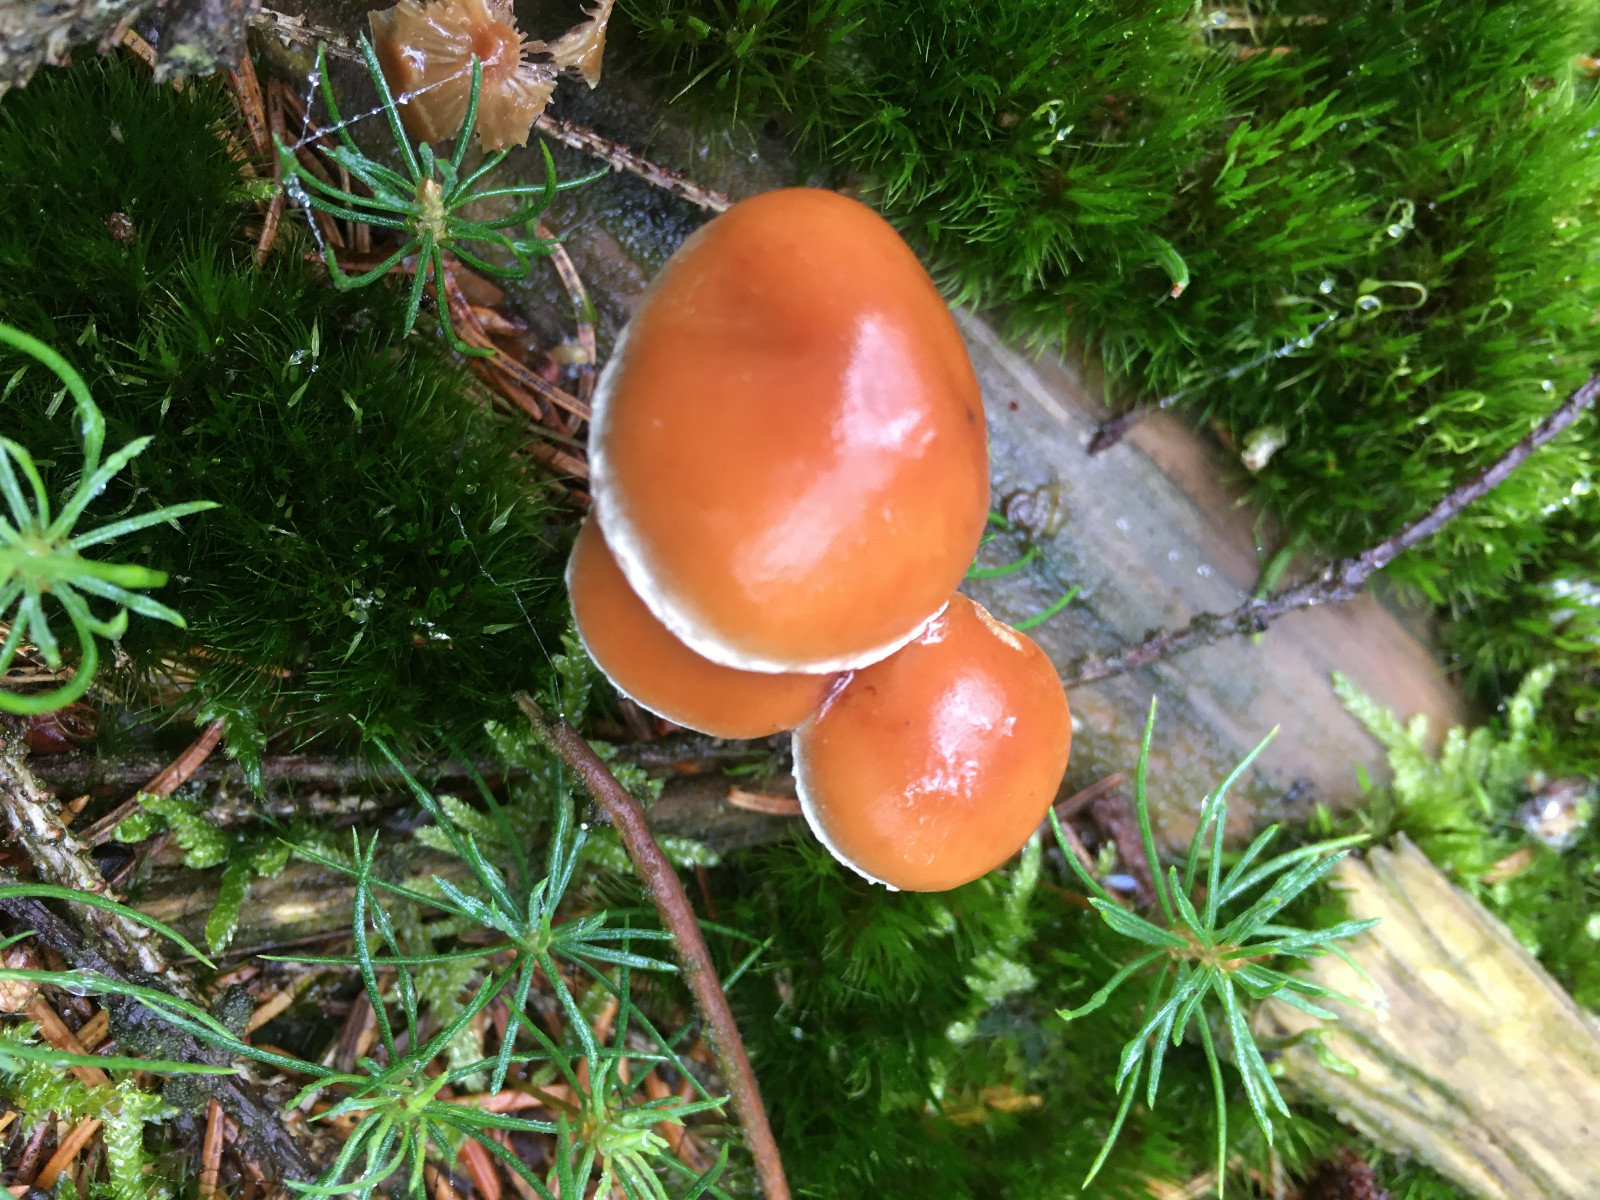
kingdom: Fungi
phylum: Basidiomycota
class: Agaricomycetes
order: Agaricales
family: Strophariaceae
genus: Hypholoma
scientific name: Hypholoma marginatum
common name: enlig svovlhat
